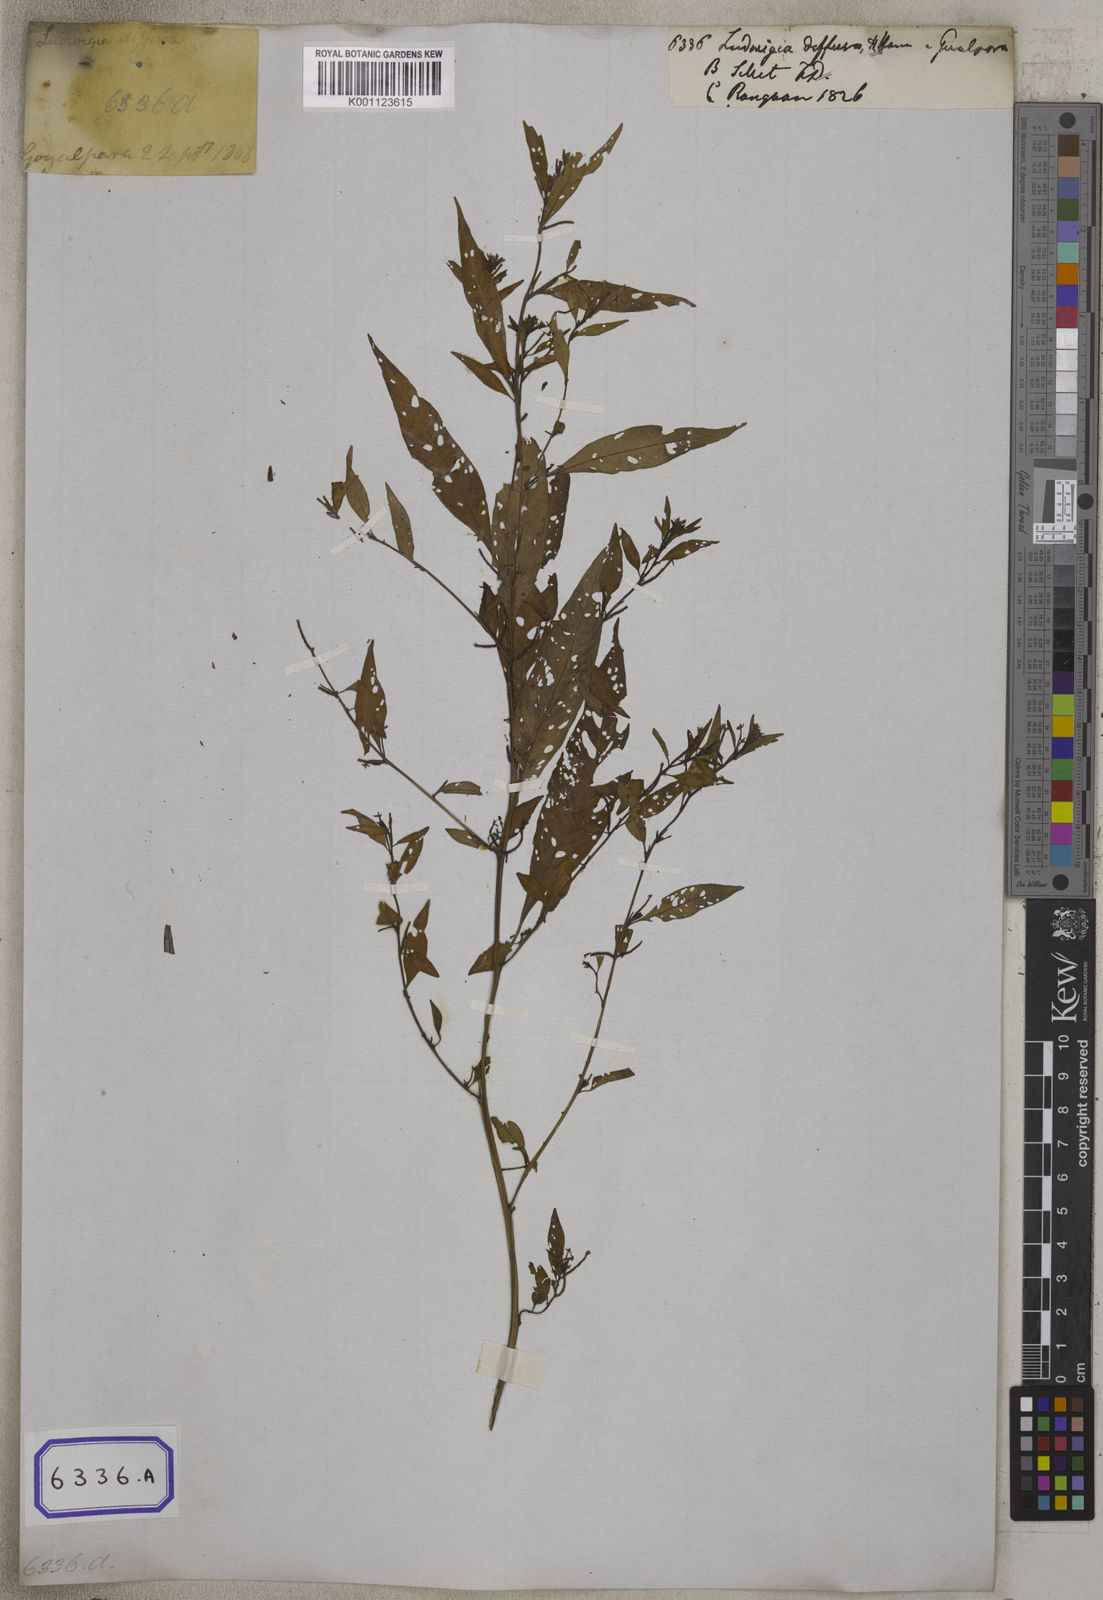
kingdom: Plantae
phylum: Tracheophyta
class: Magnoliopsida
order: Myrtales
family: Onagraceae
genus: Ludwigia
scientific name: Ludwigia prostrata
